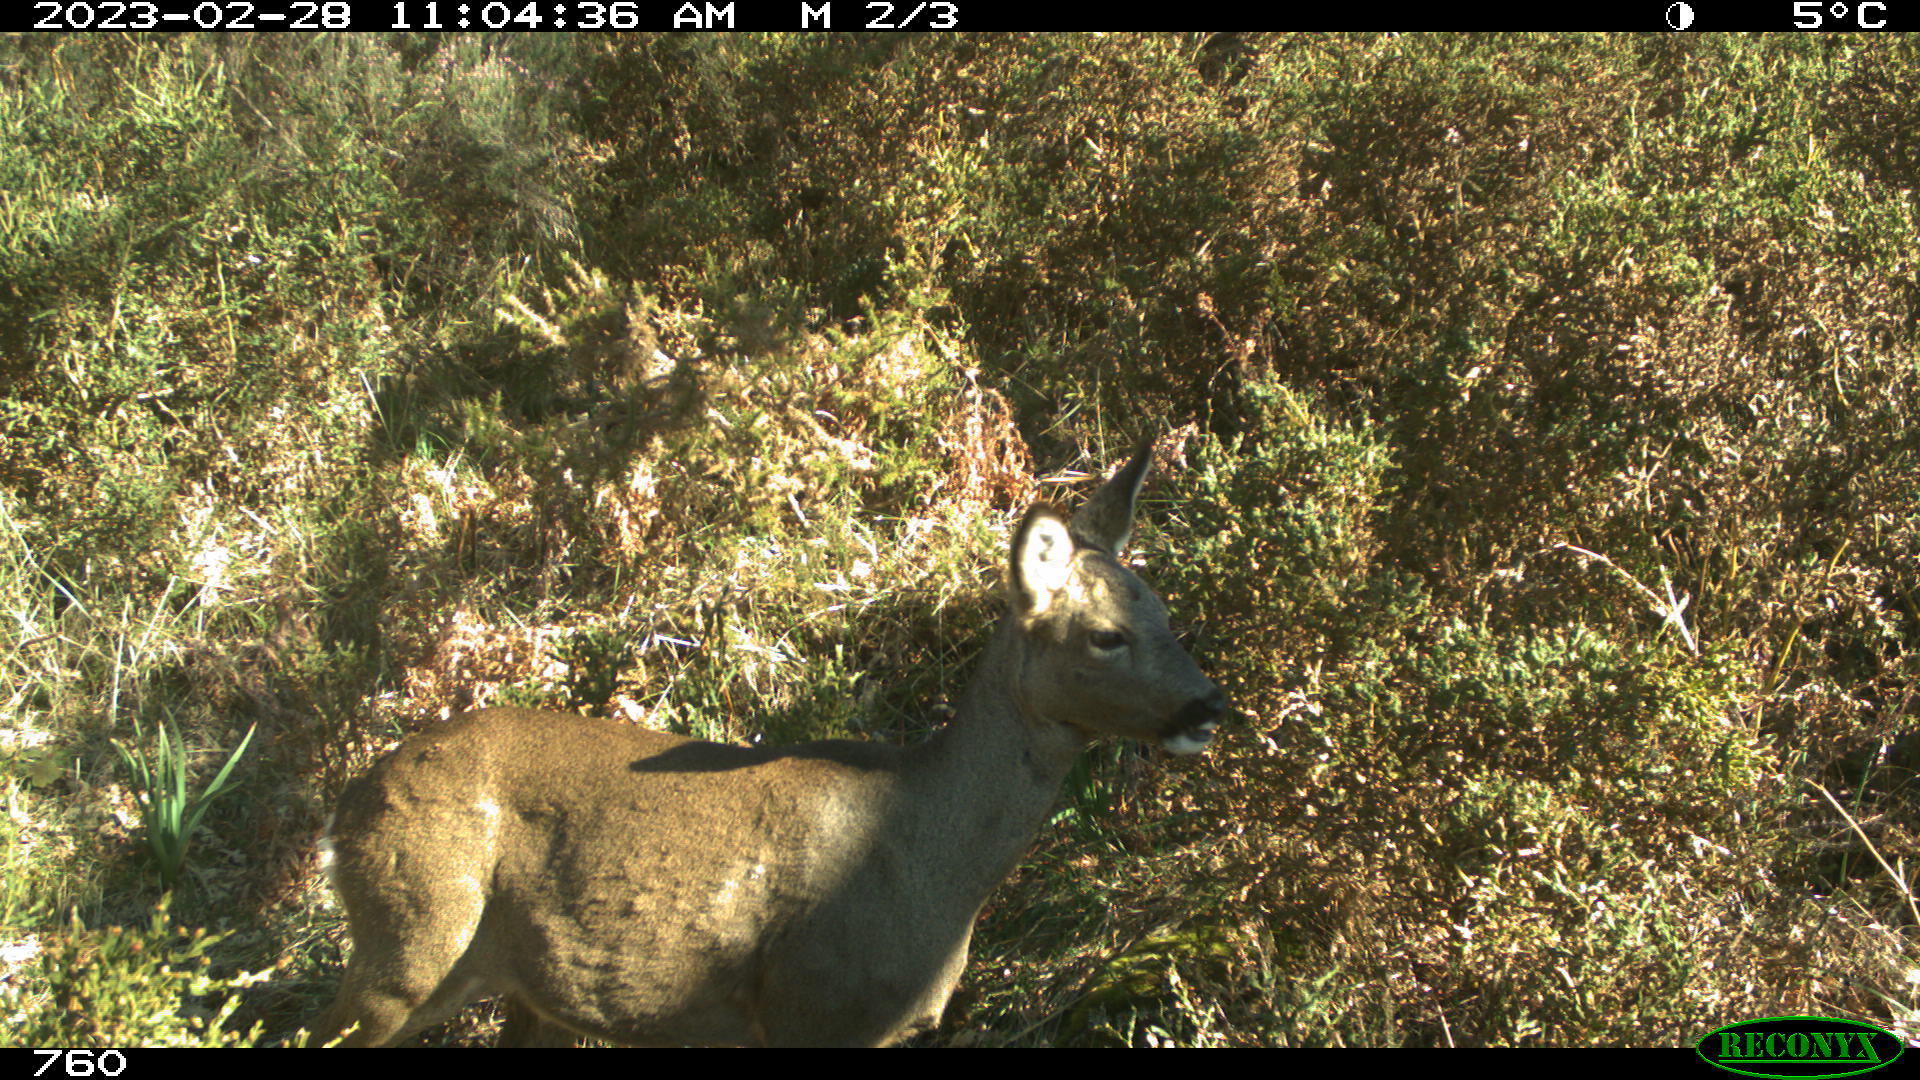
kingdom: Animalia
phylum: Chordata
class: Mammalia
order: Artiodactyla
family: Cervidae
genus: Capreolus
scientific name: Capreolus capreolus
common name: Western roe deer
